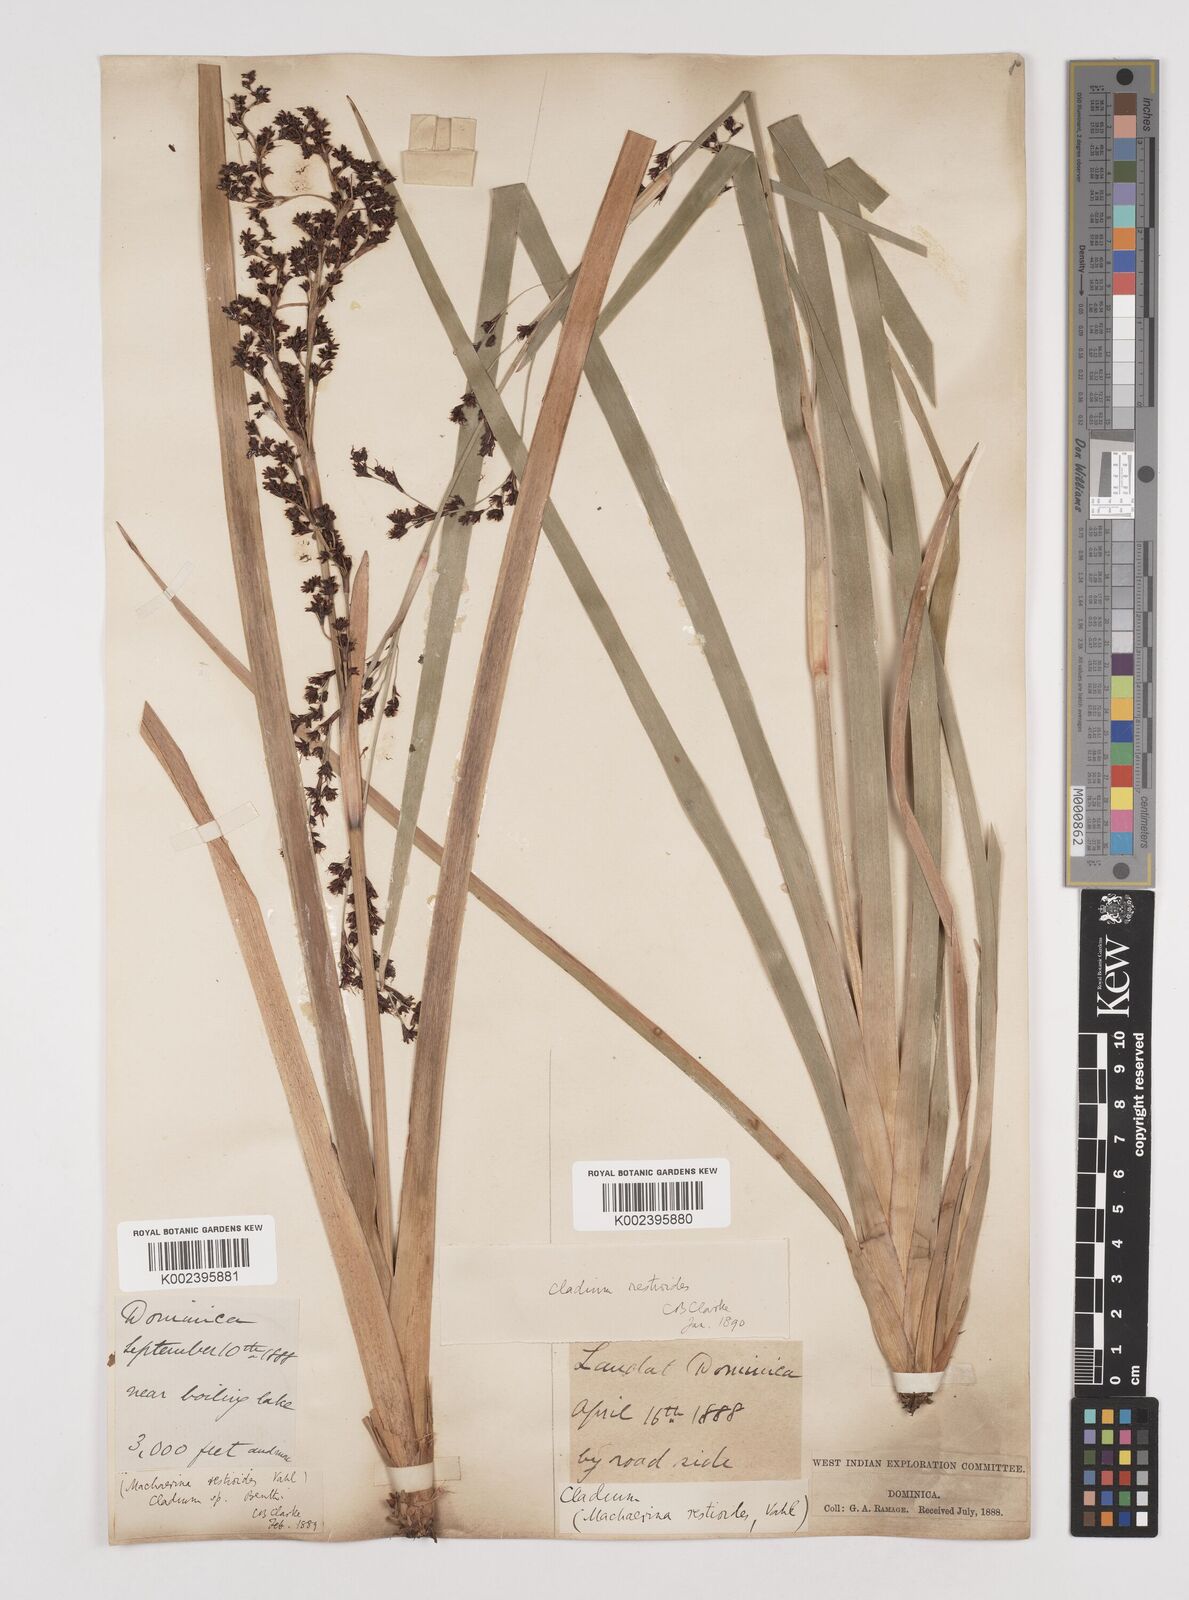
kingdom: Plantae
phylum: Tracheophyta
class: Liliopsida
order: Poales
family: Cyperaceae
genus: Machaerina
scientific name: Machaerina restioides
